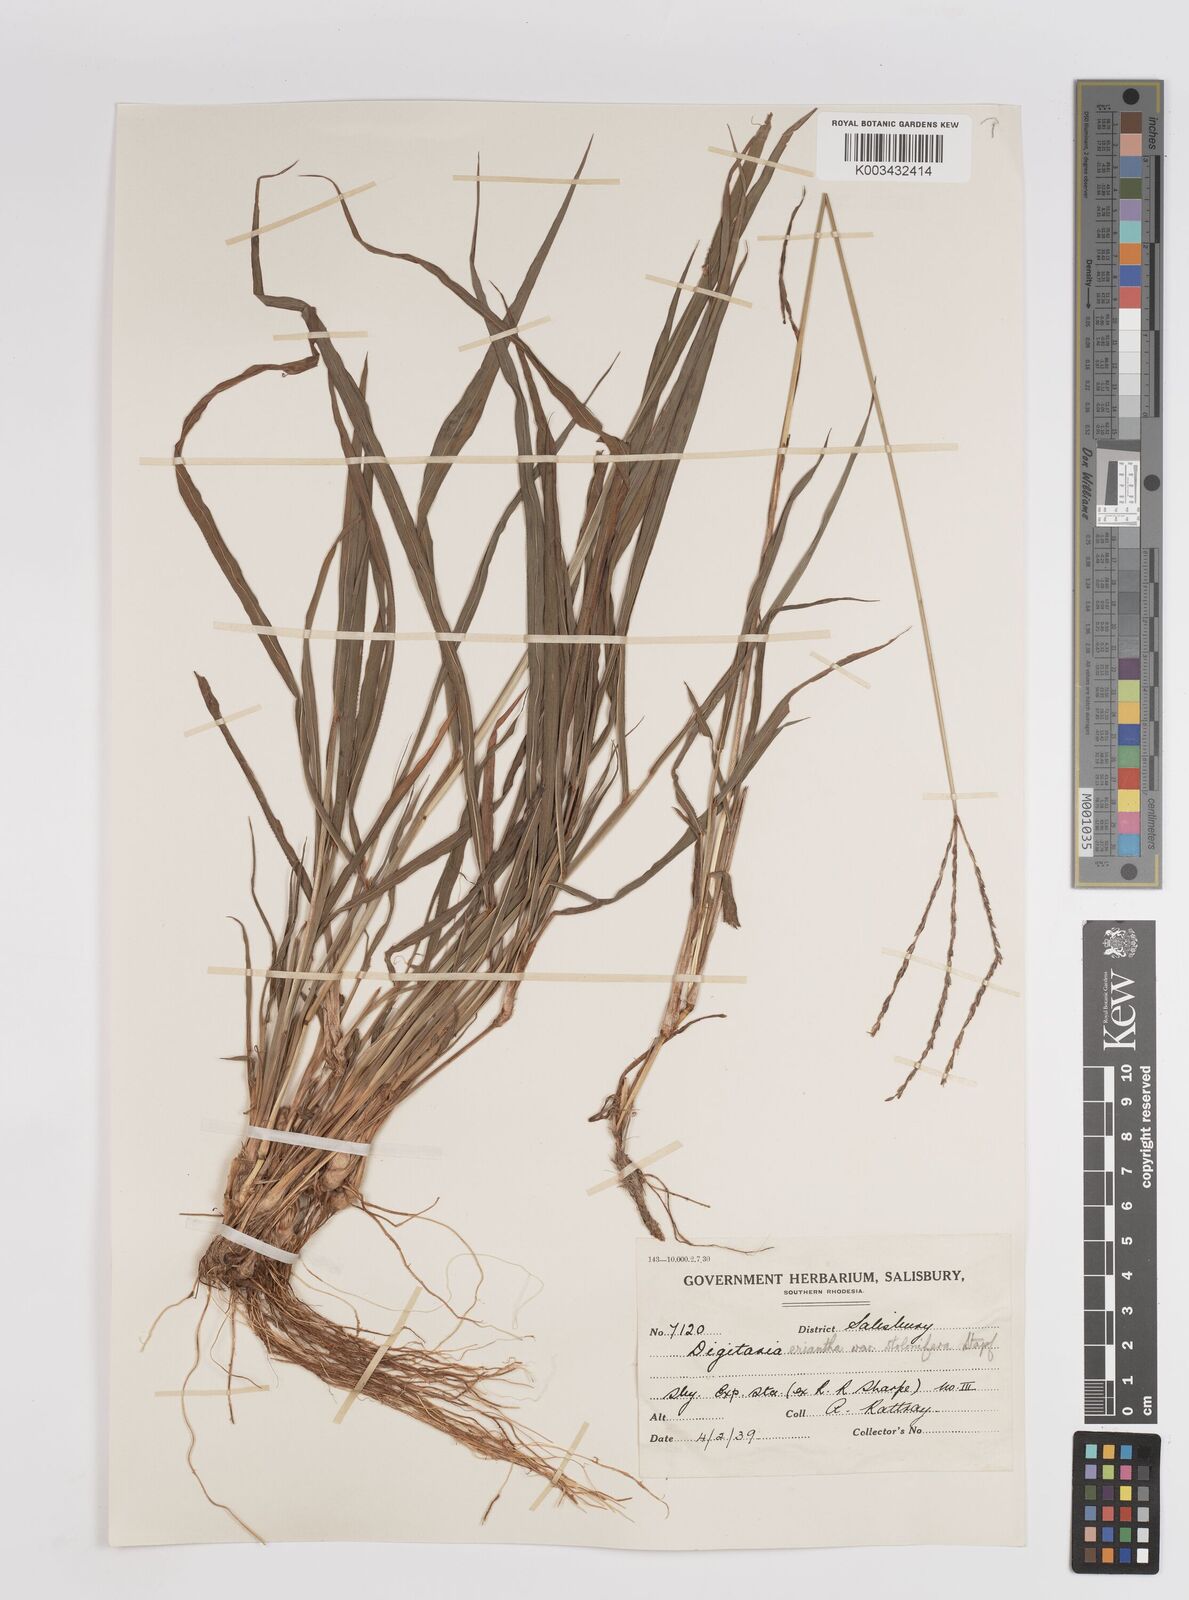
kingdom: Plantae
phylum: Tracheophyta
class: Liliopsida
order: Poales
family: Poaceae
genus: Digitaria
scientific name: Digitaria eriantha
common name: Digitgrass
